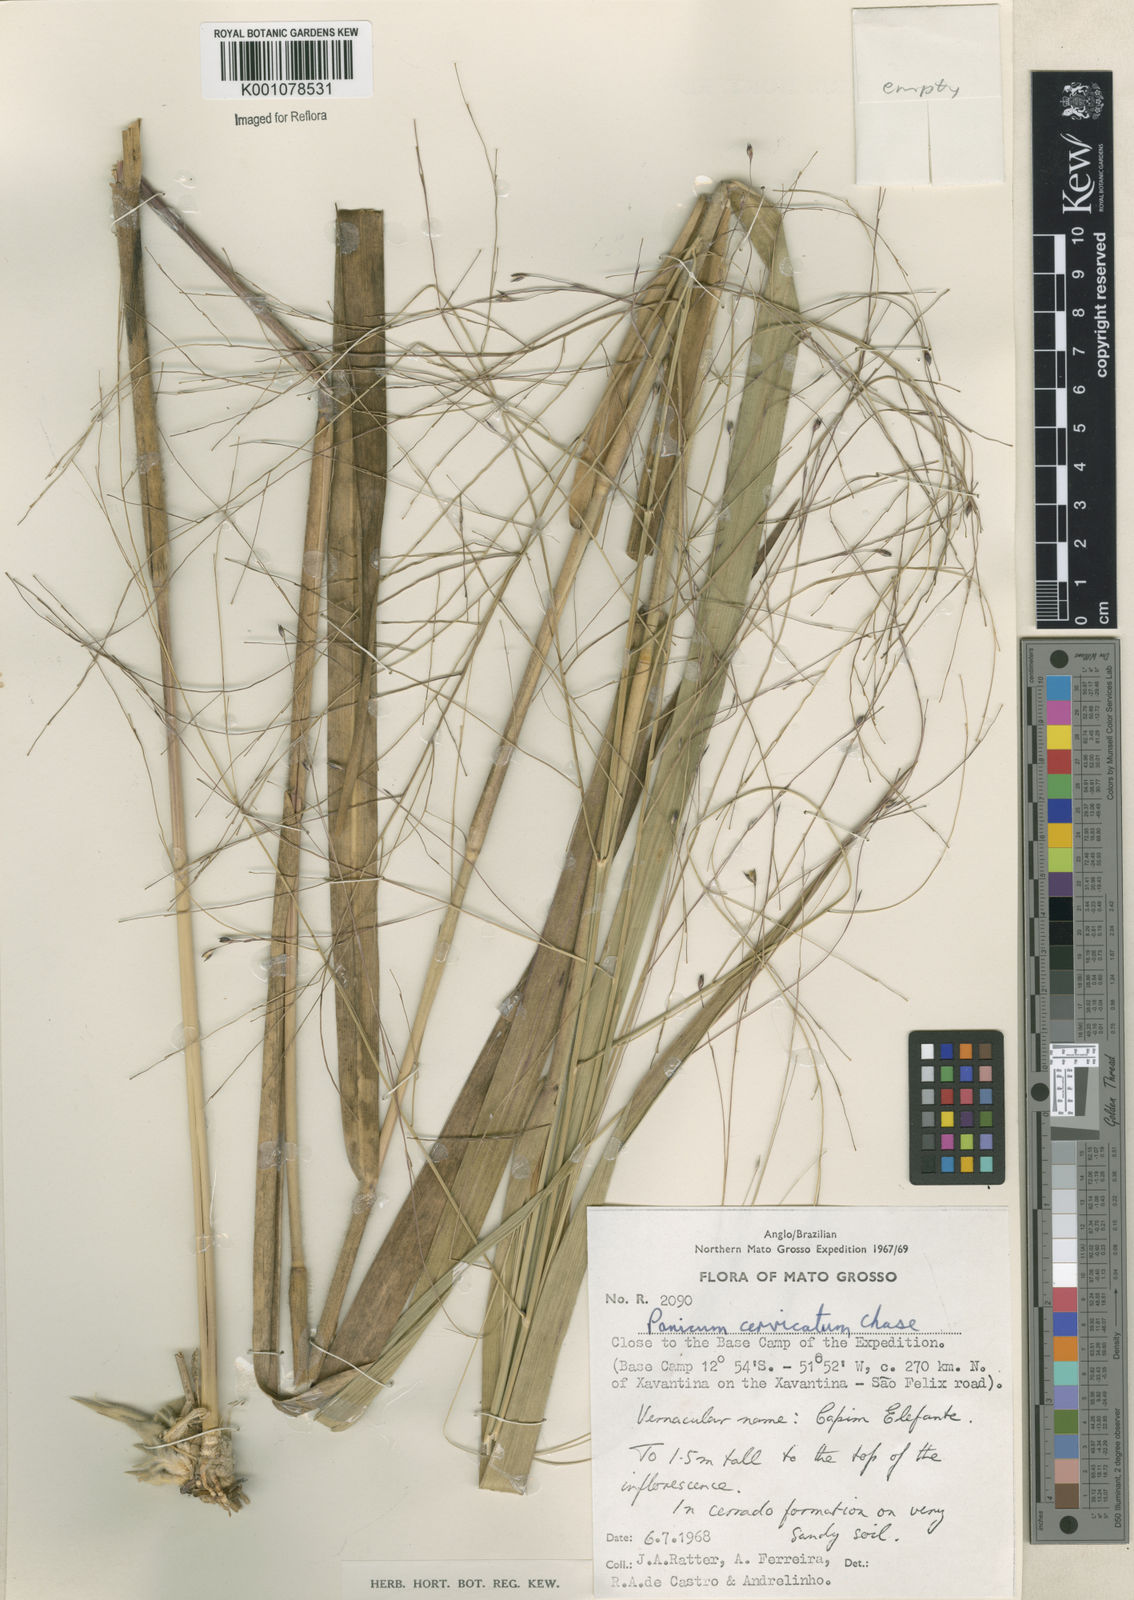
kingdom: Plantae
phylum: Tracheophyta
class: Liliopsida
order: Poales
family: Poaceae
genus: Panicum
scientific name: Panicum ligulare
